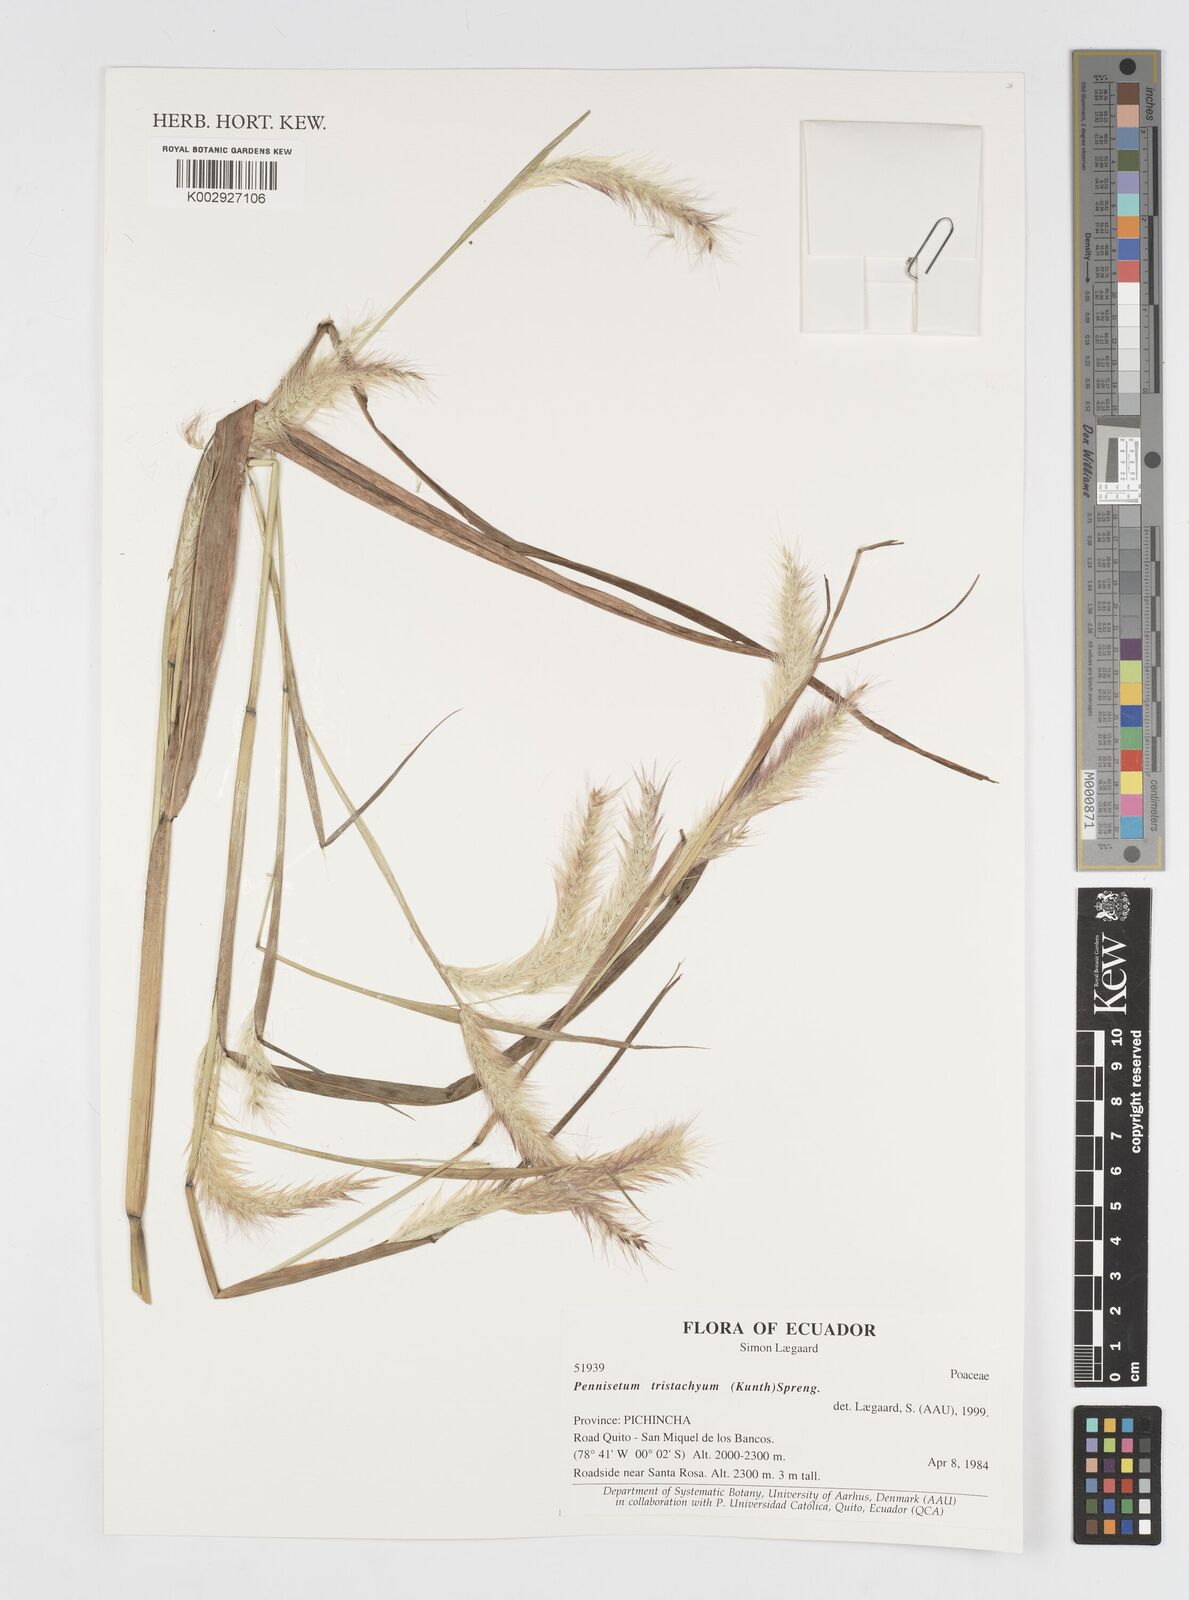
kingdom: Plantae
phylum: Tracheophyta
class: Liliopsida
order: Poales
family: Poaceae
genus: Cenchrus
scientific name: Cenchrus tristachyus
